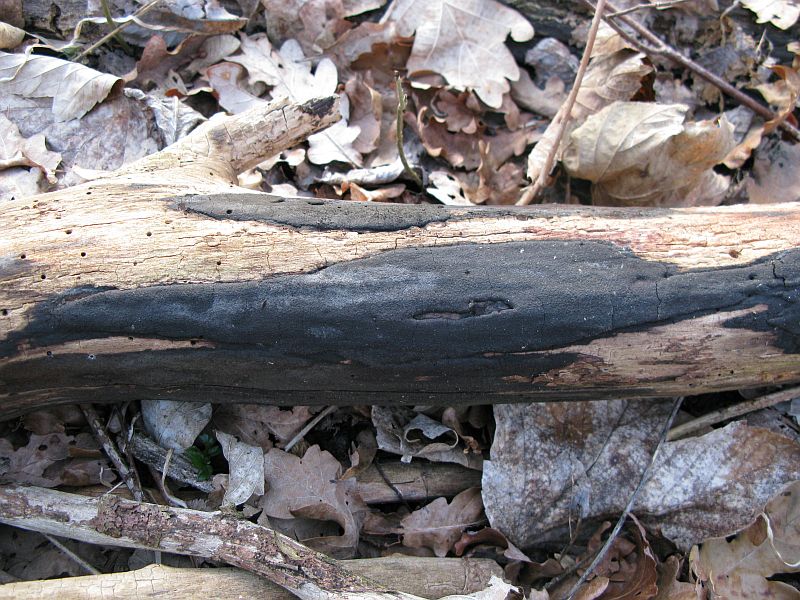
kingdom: Fungi
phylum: Ascomycota
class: Sordariomycetes
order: Xylariales
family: Hypoxylaceae
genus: Hypoxylon
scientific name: Hypoxylon macrocarpum
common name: skorpe-kulbær
